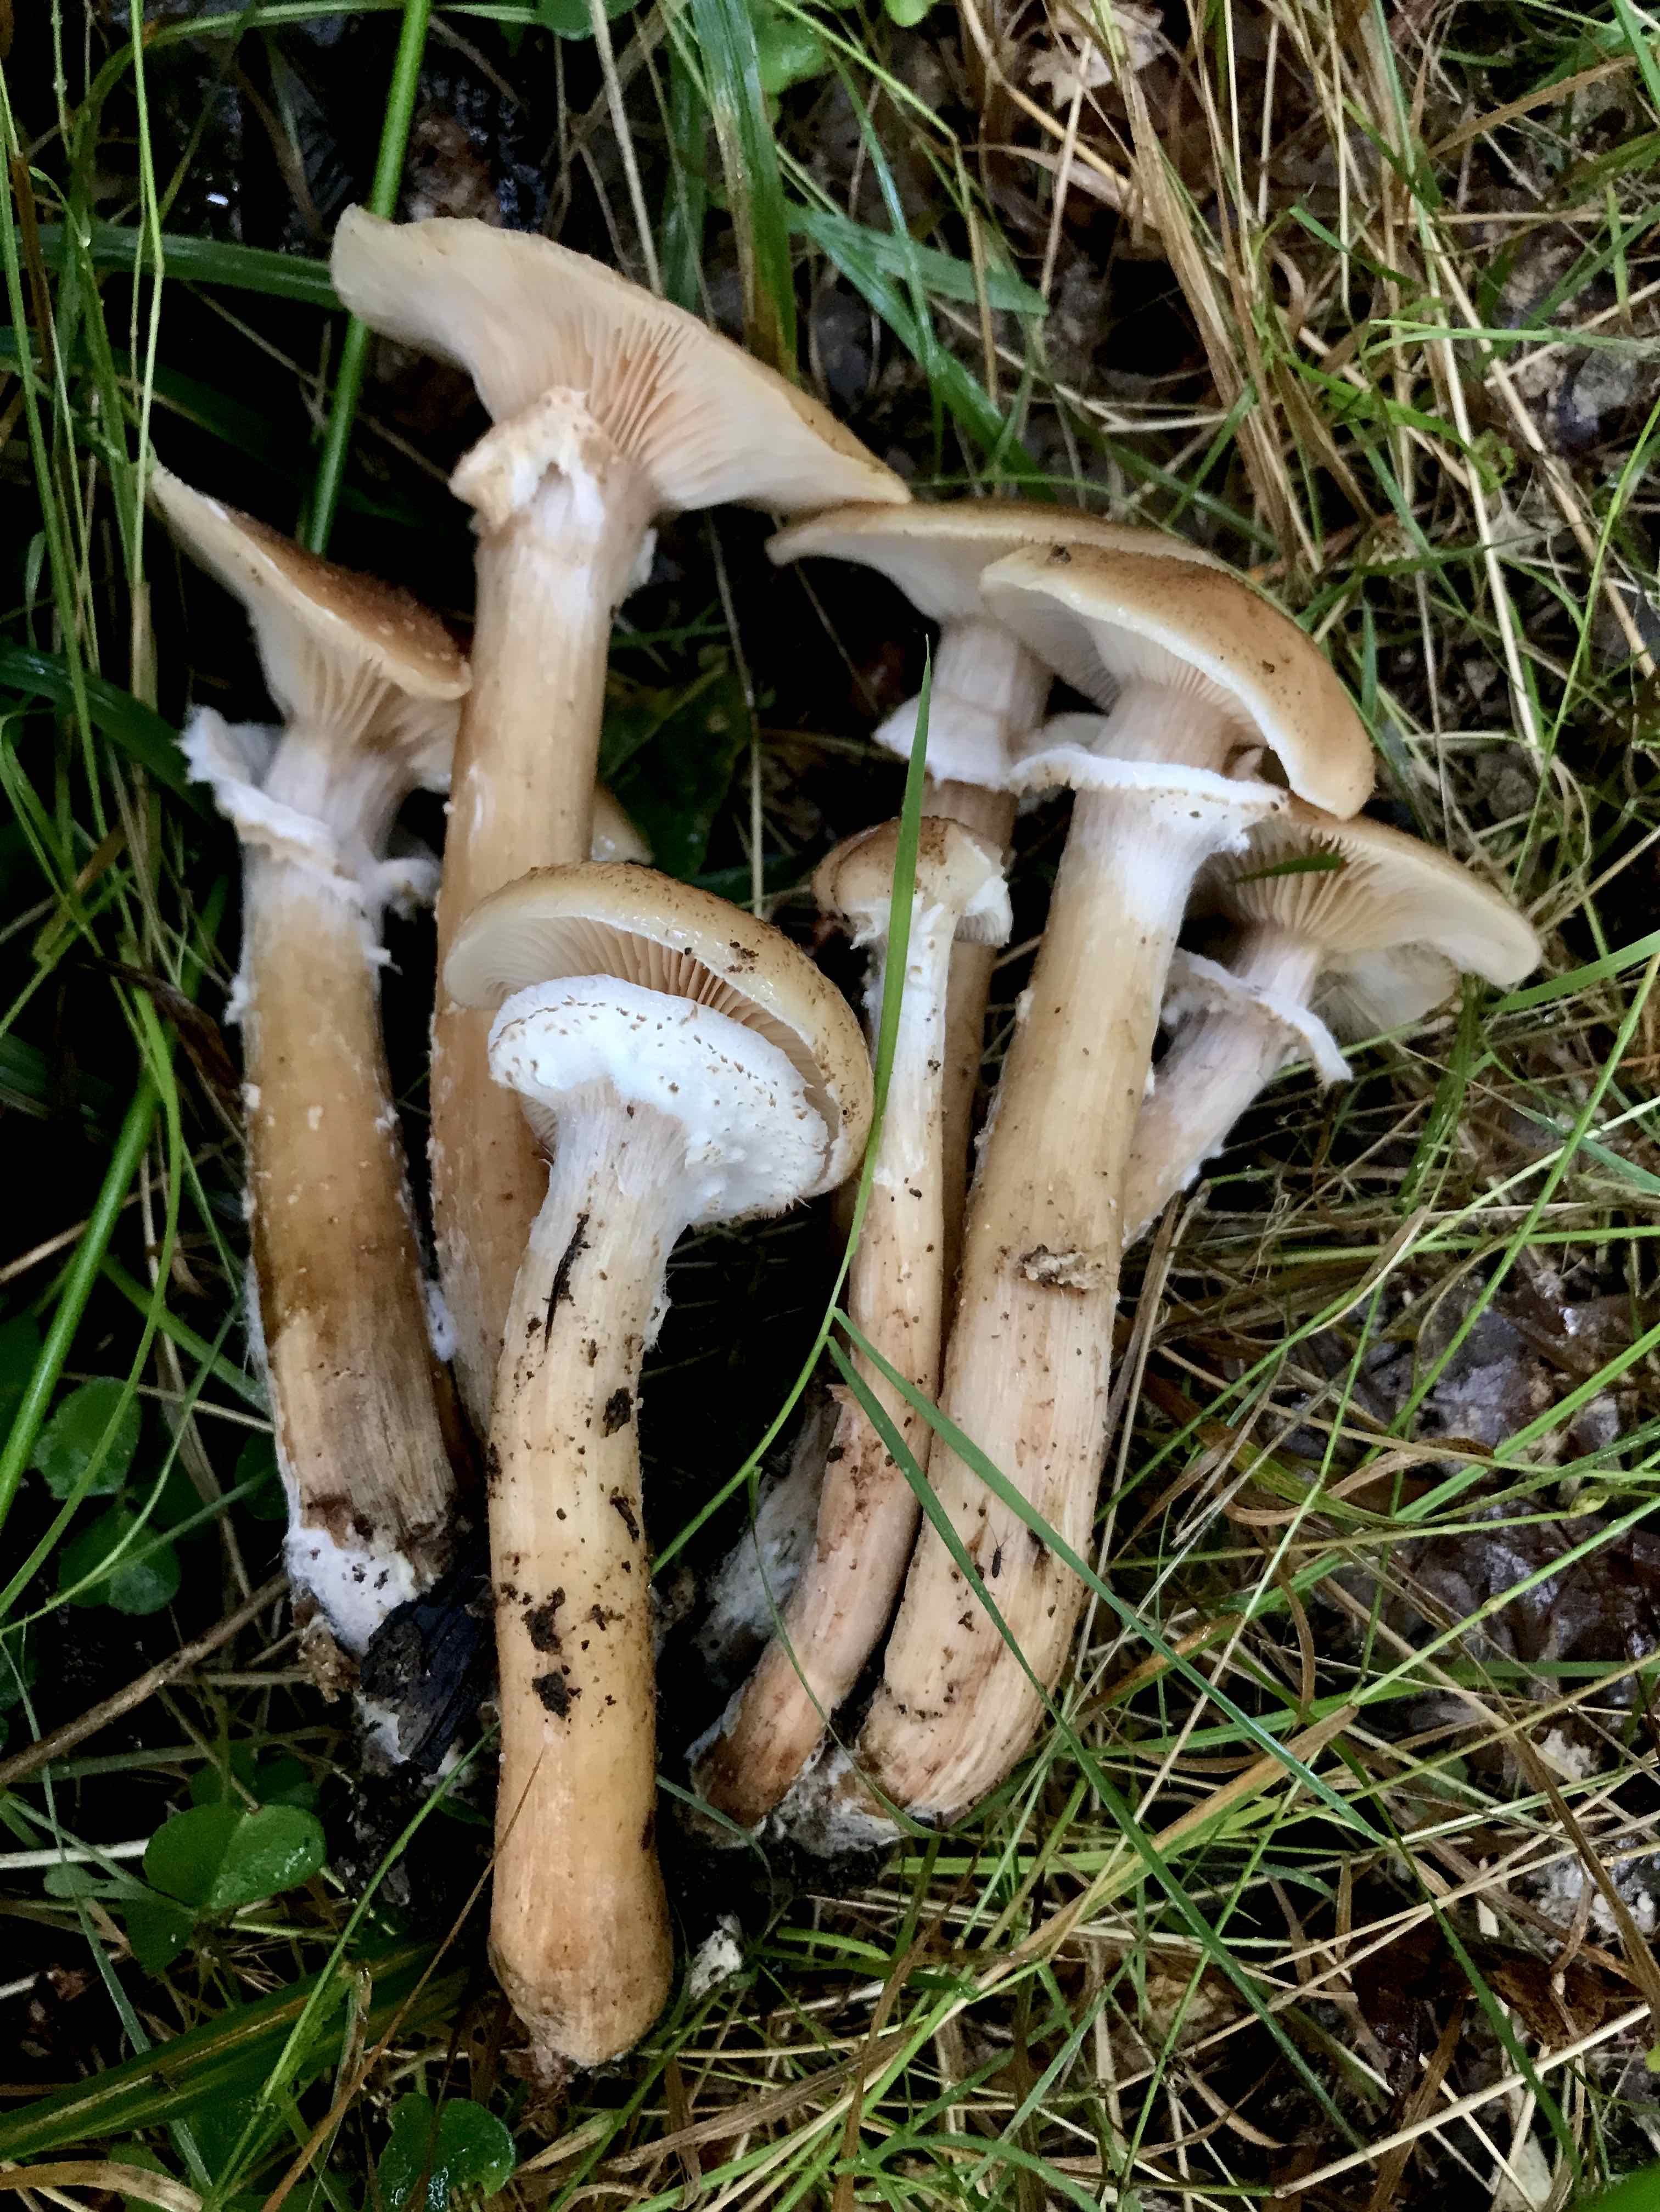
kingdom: Fungi
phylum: Basidiomycota
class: Agaricomycetes
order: Agaricales
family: Physalacriaceae
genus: Armillaria
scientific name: Armillaria lutea
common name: køllestokket honningsvamp
